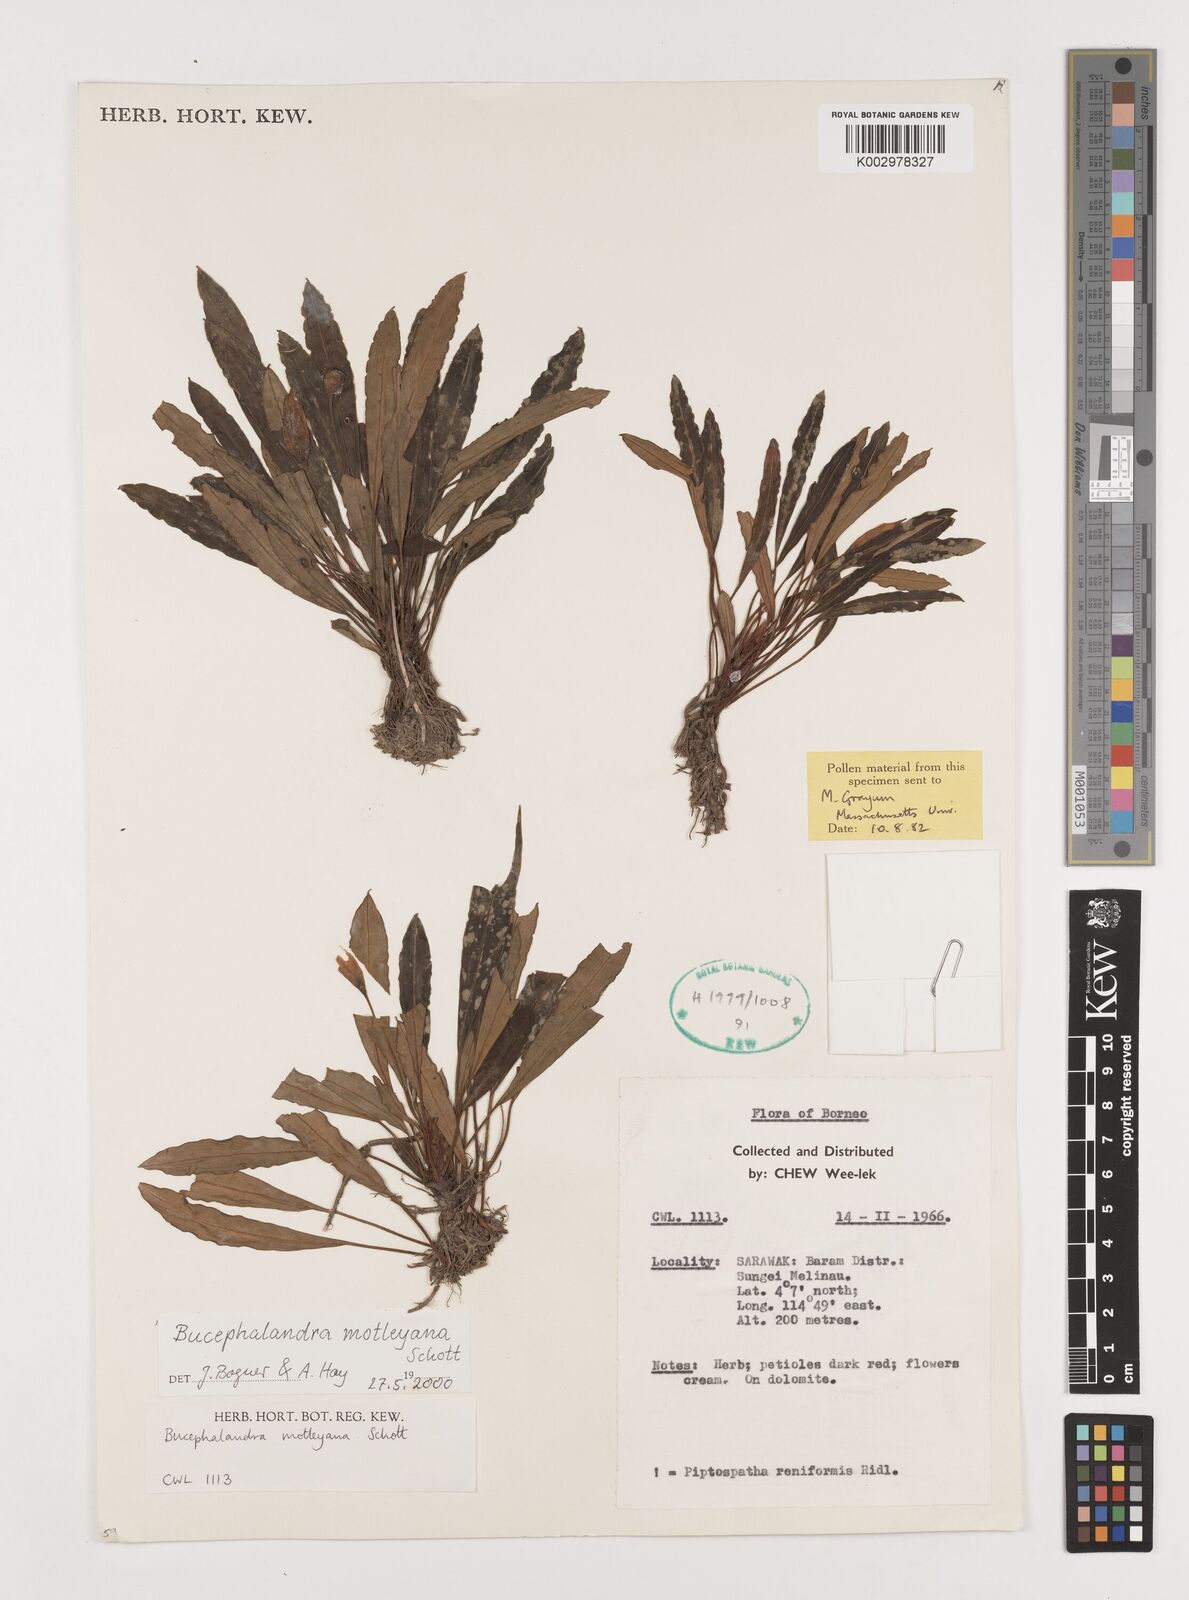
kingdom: Plantae
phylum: Tracheophyta
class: Liliopsida
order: Alismatales
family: Araceae
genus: Bucephalandra
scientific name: Bucephalandra motleyana
